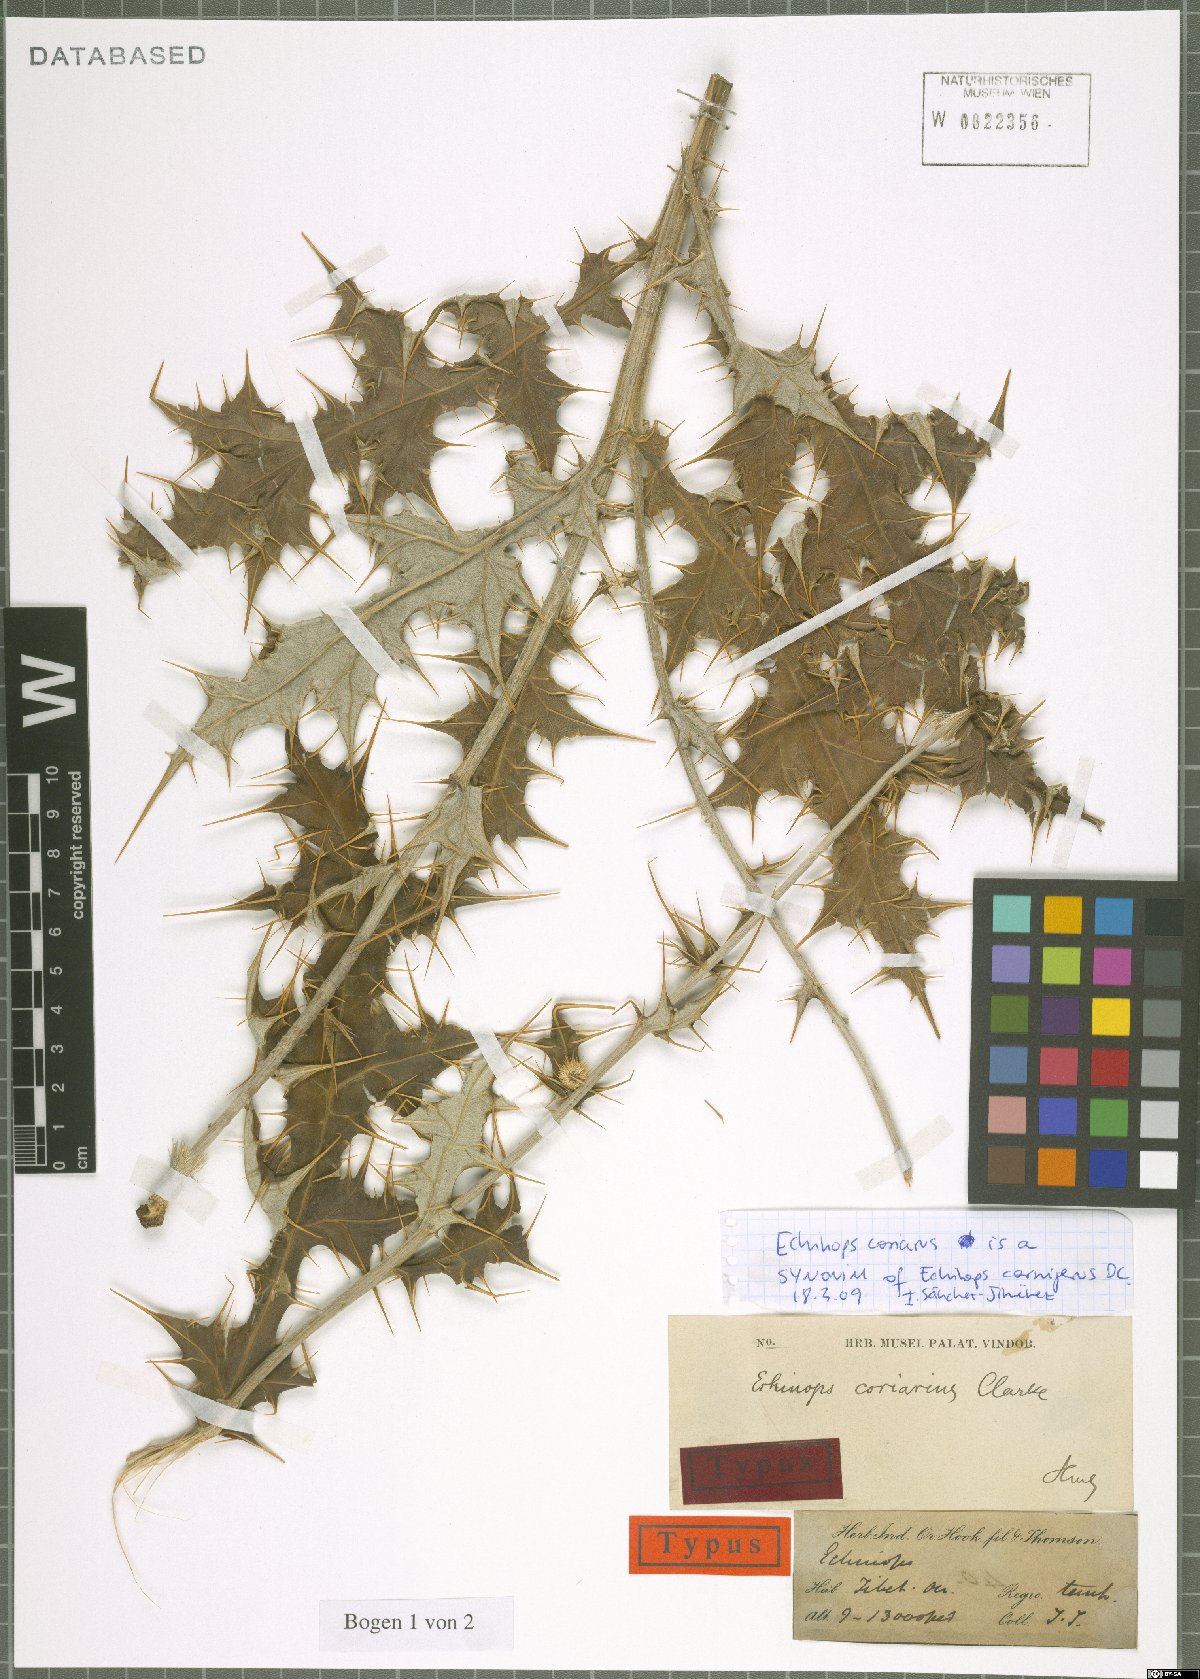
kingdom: Plantae
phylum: Tracheophyta
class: Magnoliopsida
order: Asterales
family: Asteraceae
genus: Echinops
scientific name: Echinops cornigerus
